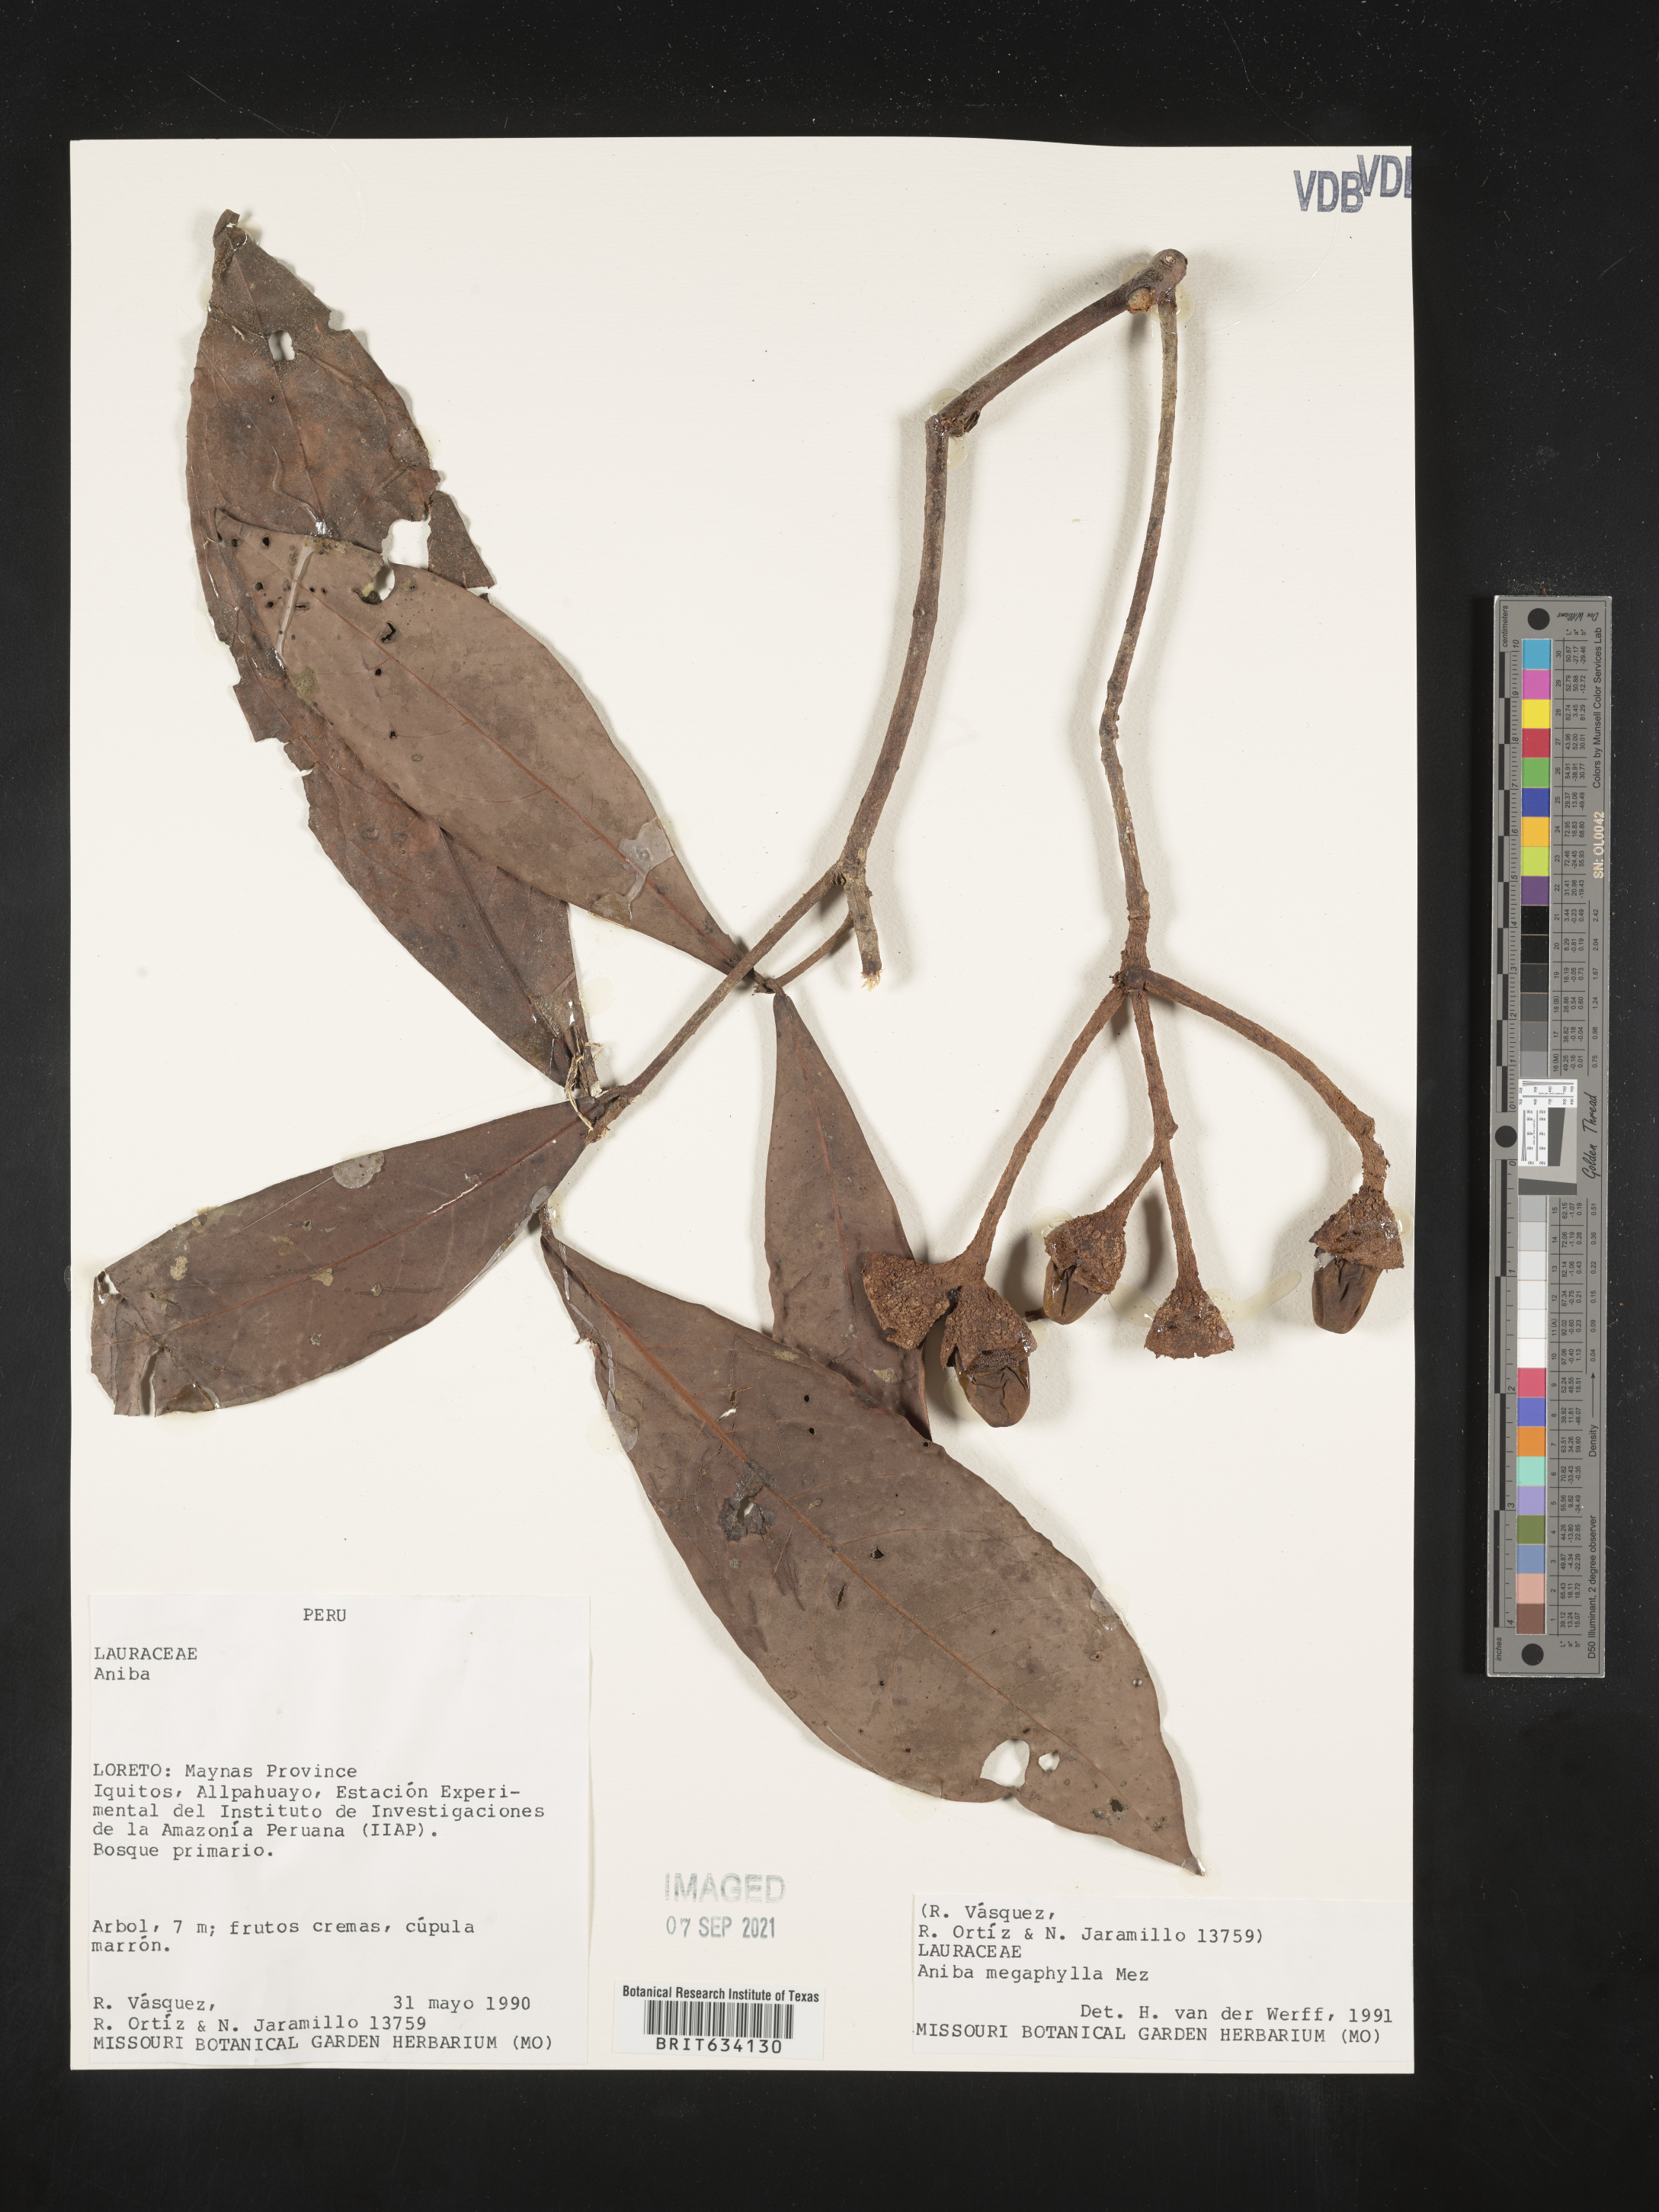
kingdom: Plantae
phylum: Tracheophyta
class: Magnoliopsida
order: Laurales
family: Lauraceae
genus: Aniba
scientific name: Aniba
